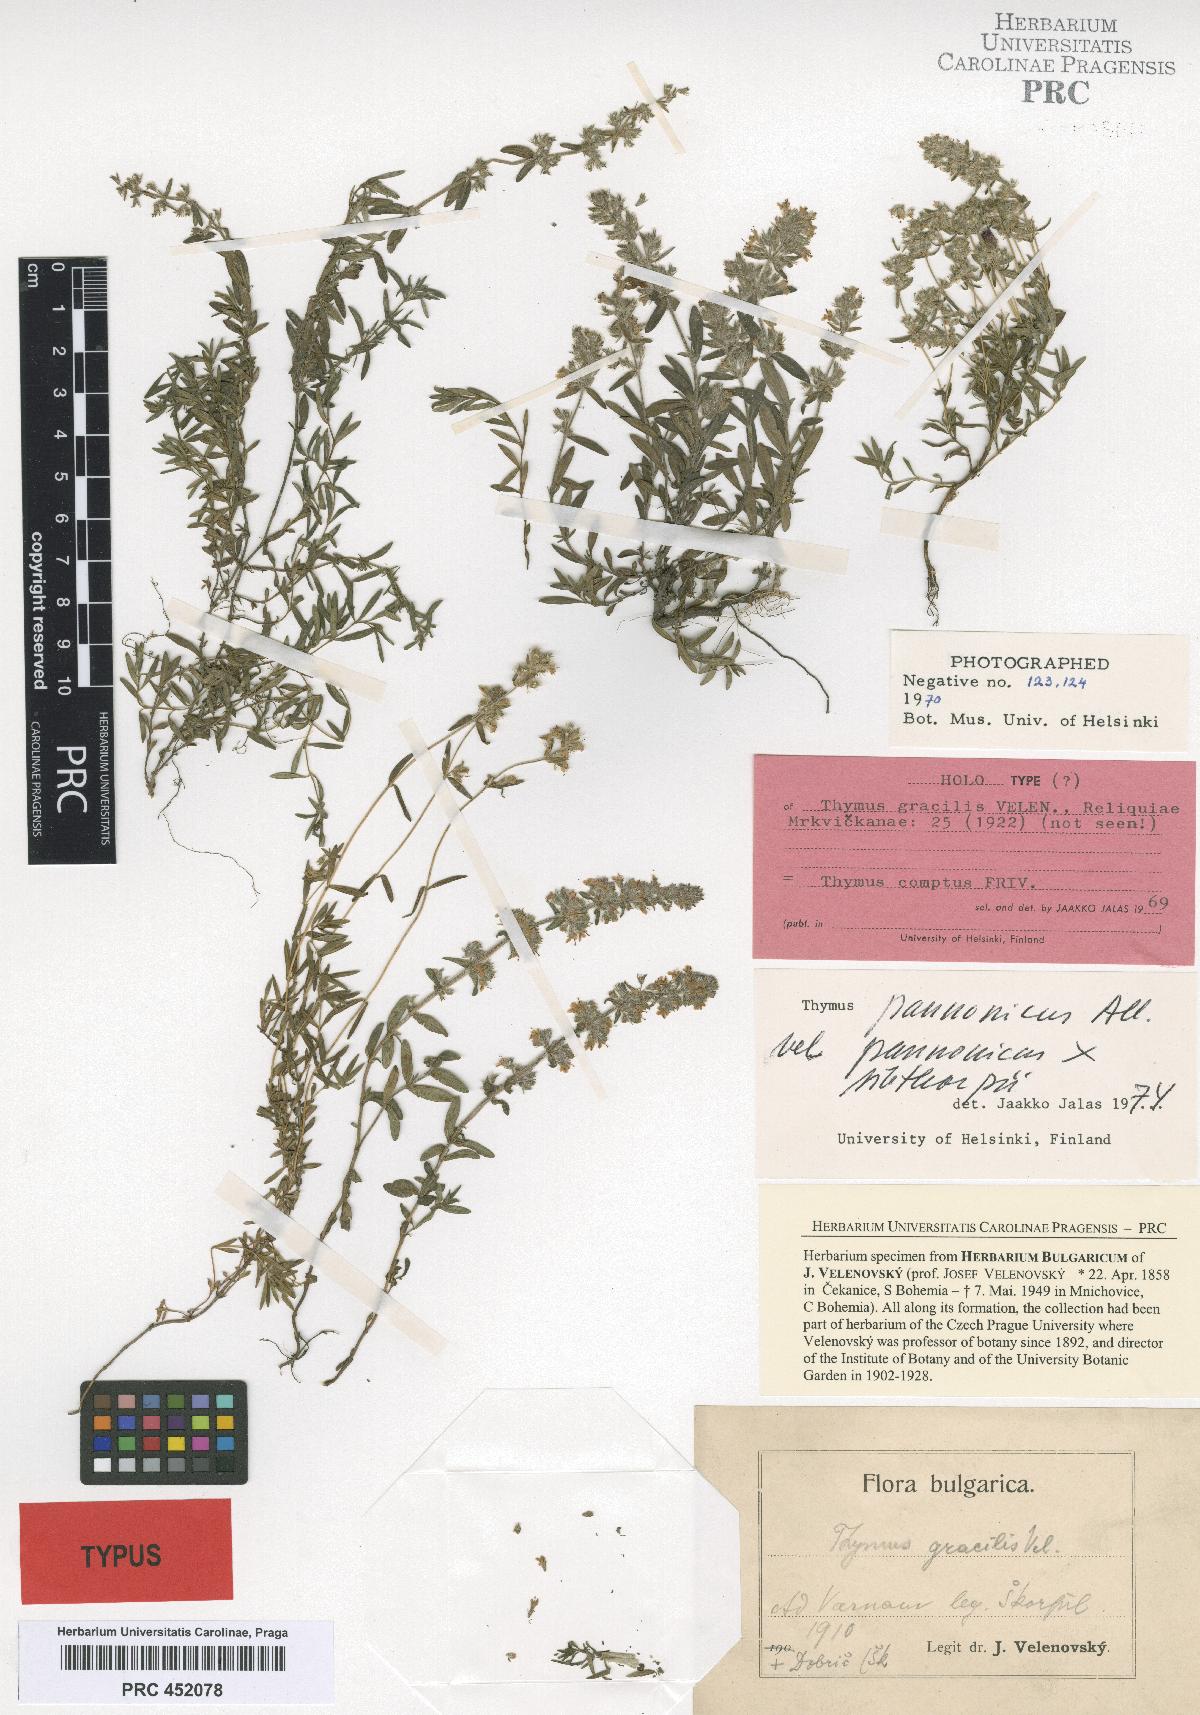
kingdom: Plantae
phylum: Tracheophyta
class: Magnoliopsida
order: Lamiales
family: Lamiaceae
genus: Thymus
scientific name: Thymus gracilis
